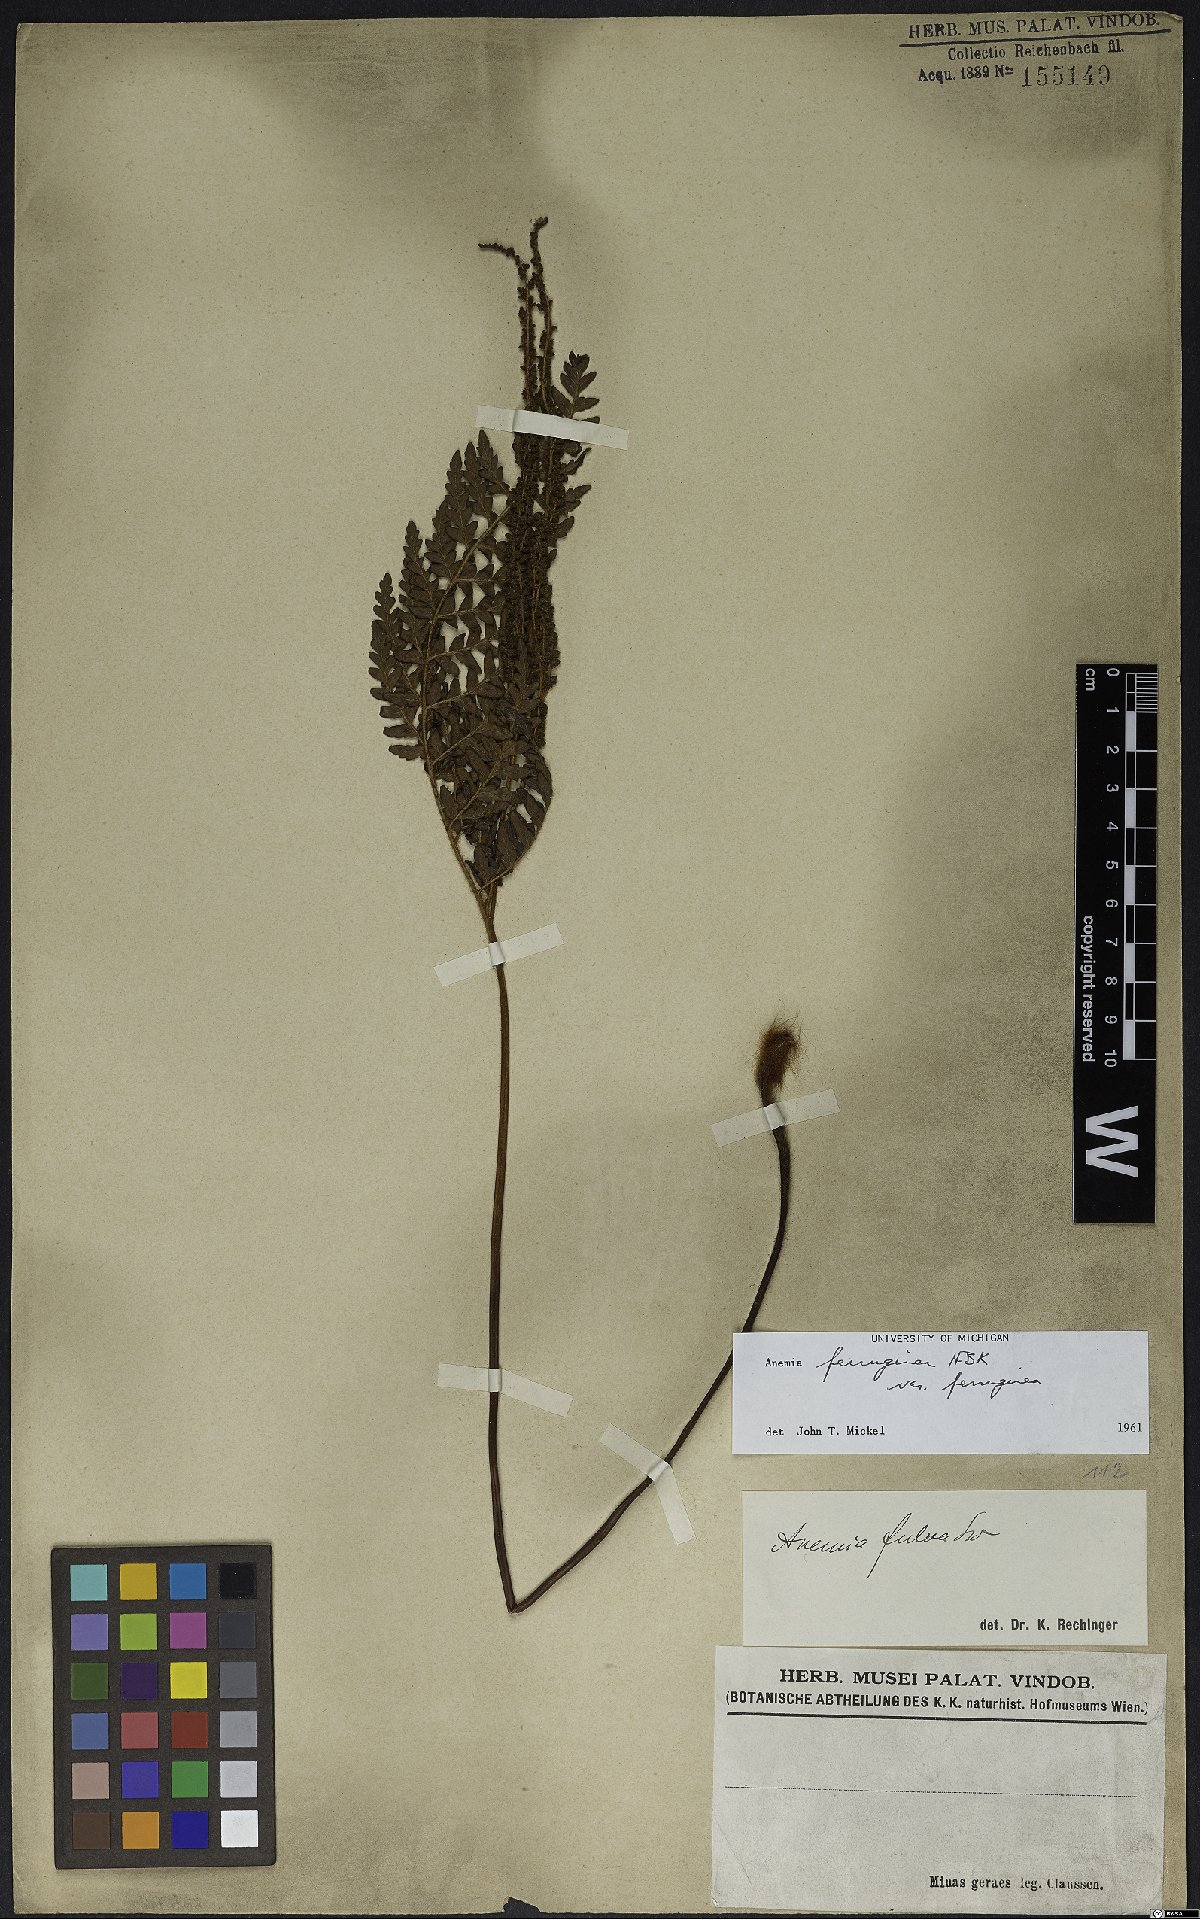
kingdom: Plantae
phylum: Tracheophyta
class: Polypodiopsida
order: Schizaeales
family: Anemiaceae
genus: Anemia
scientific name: Anemia ferruginea
